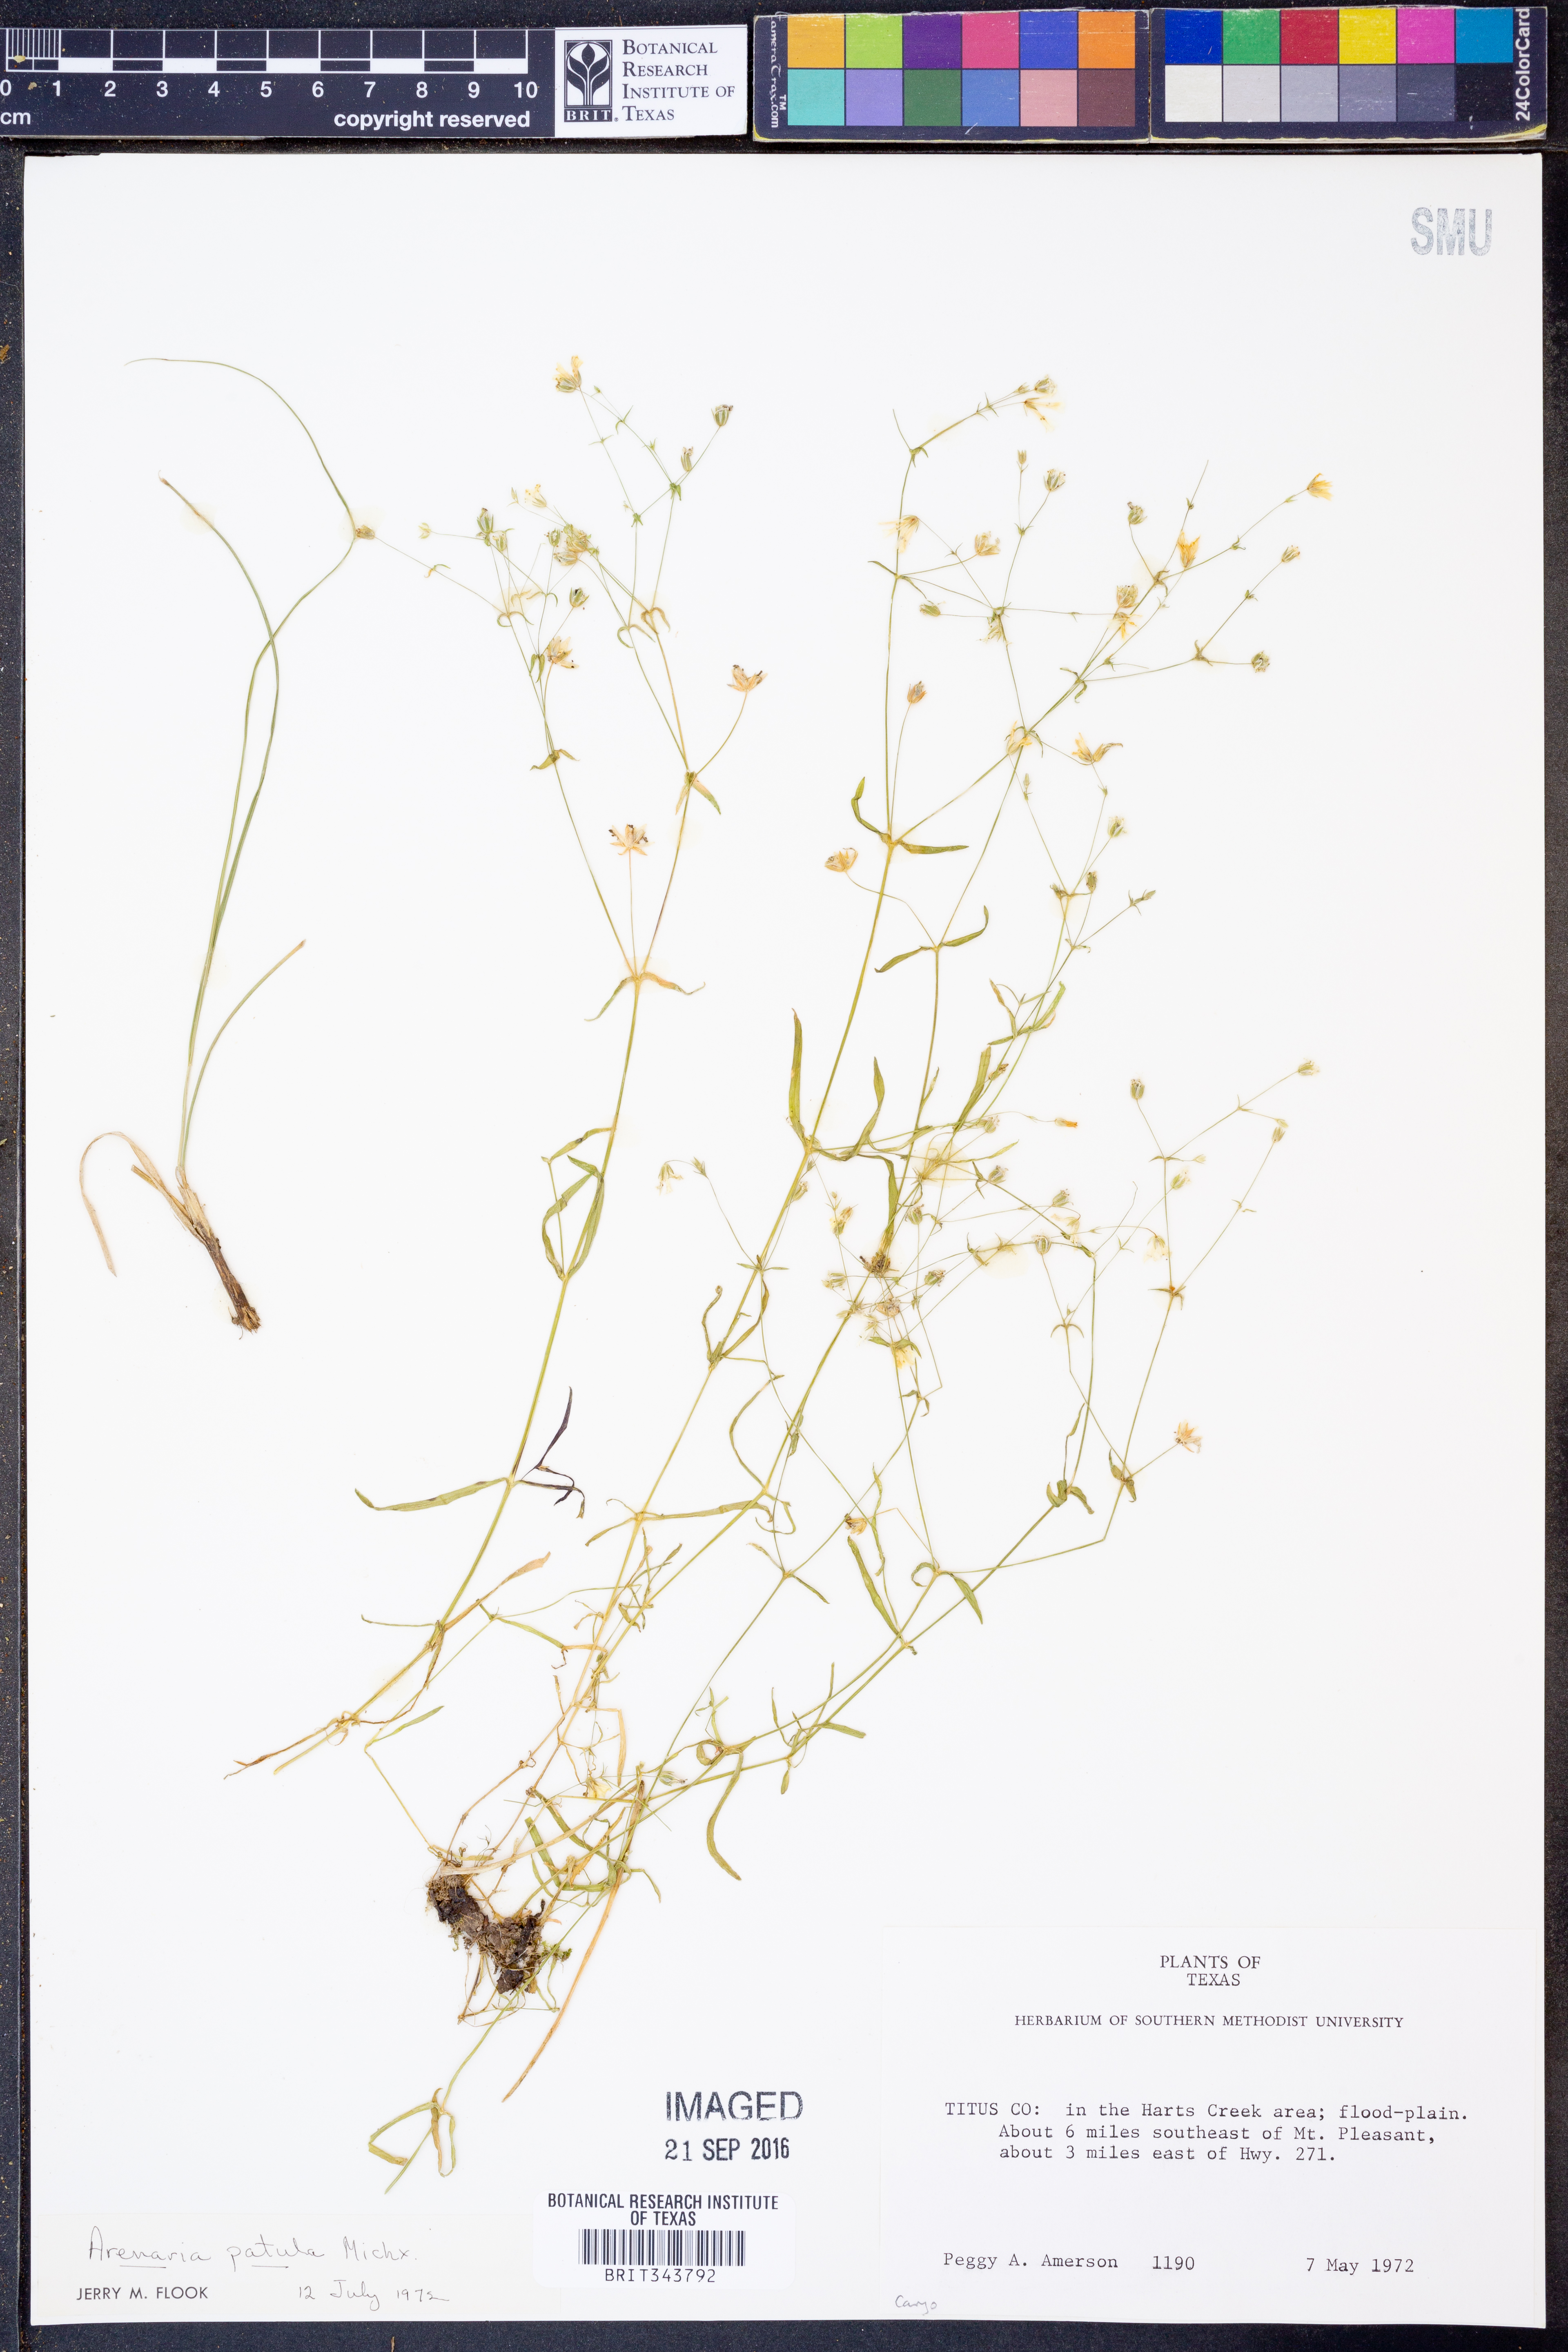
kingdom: Plantae
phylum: Tracheophyta
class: Magnoliopsida
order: Caryophyllales
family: Caryophyllaceae
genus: Mononeuria
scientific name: Mononeuria patula
